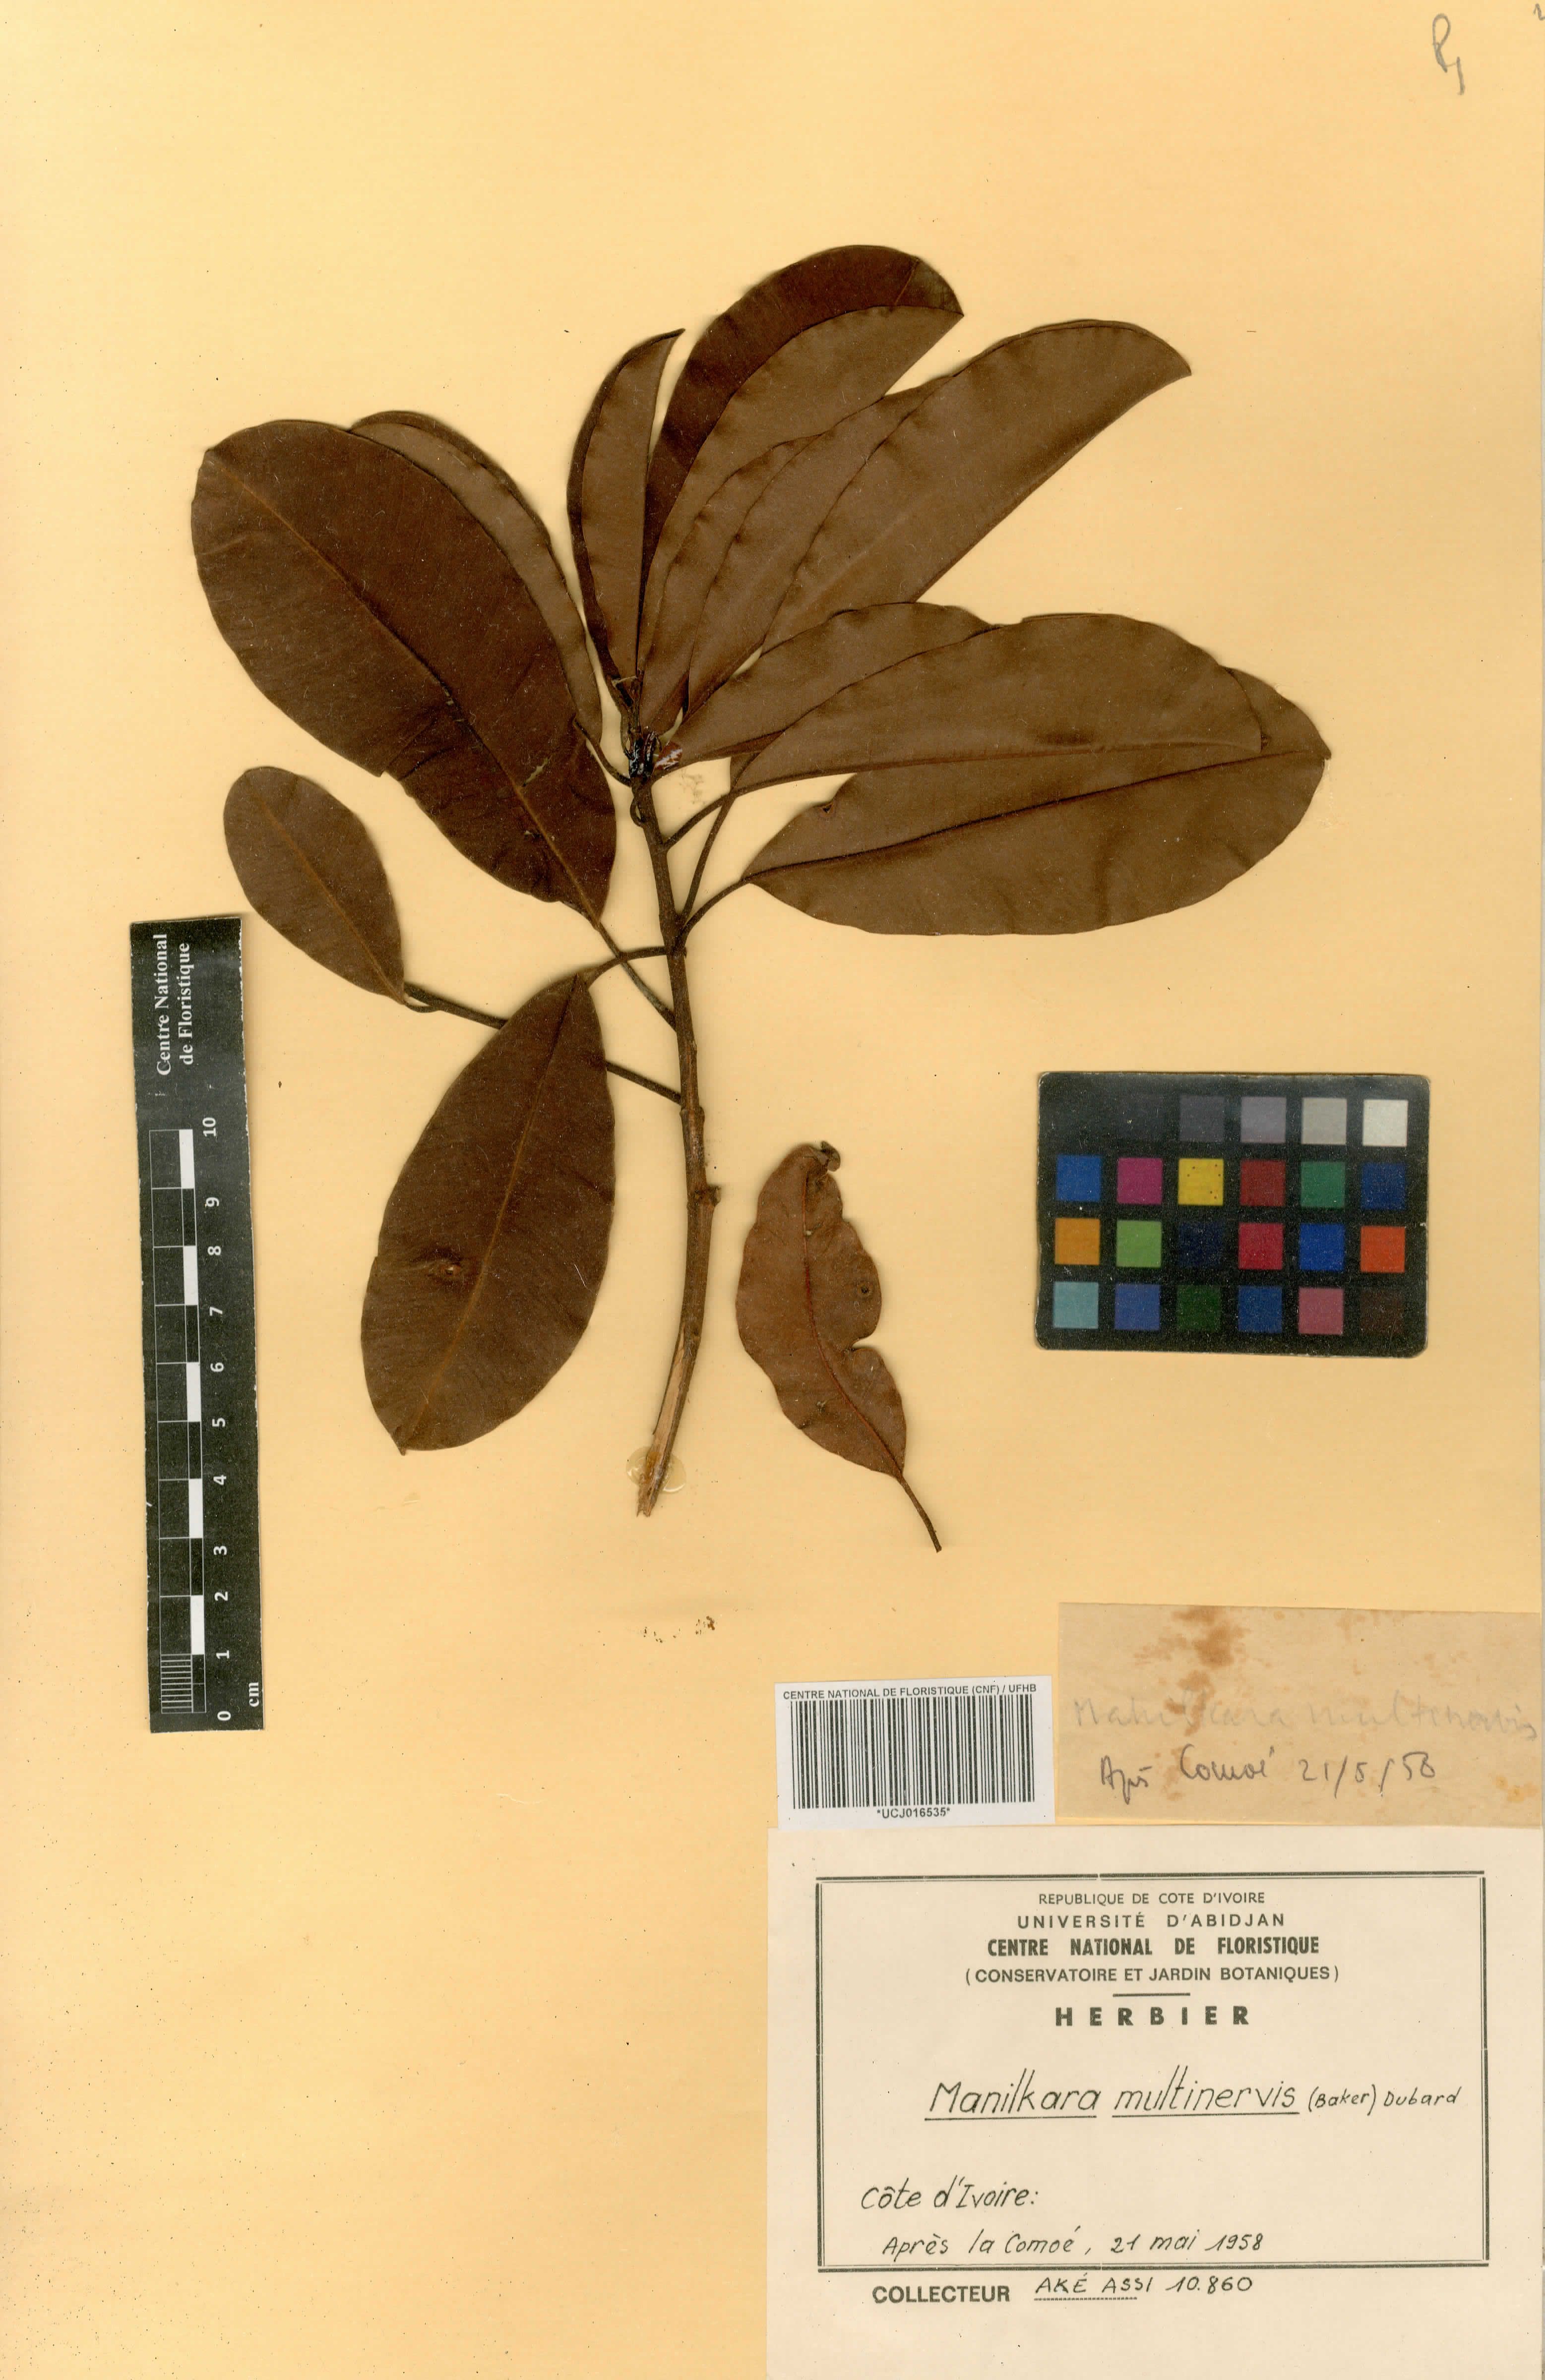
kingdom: Plantae
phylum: Tracheophyta
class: Magnoliopsida
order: Ericales
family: Sapotaceae
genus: Manilkara
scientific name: Manilkara obovata
